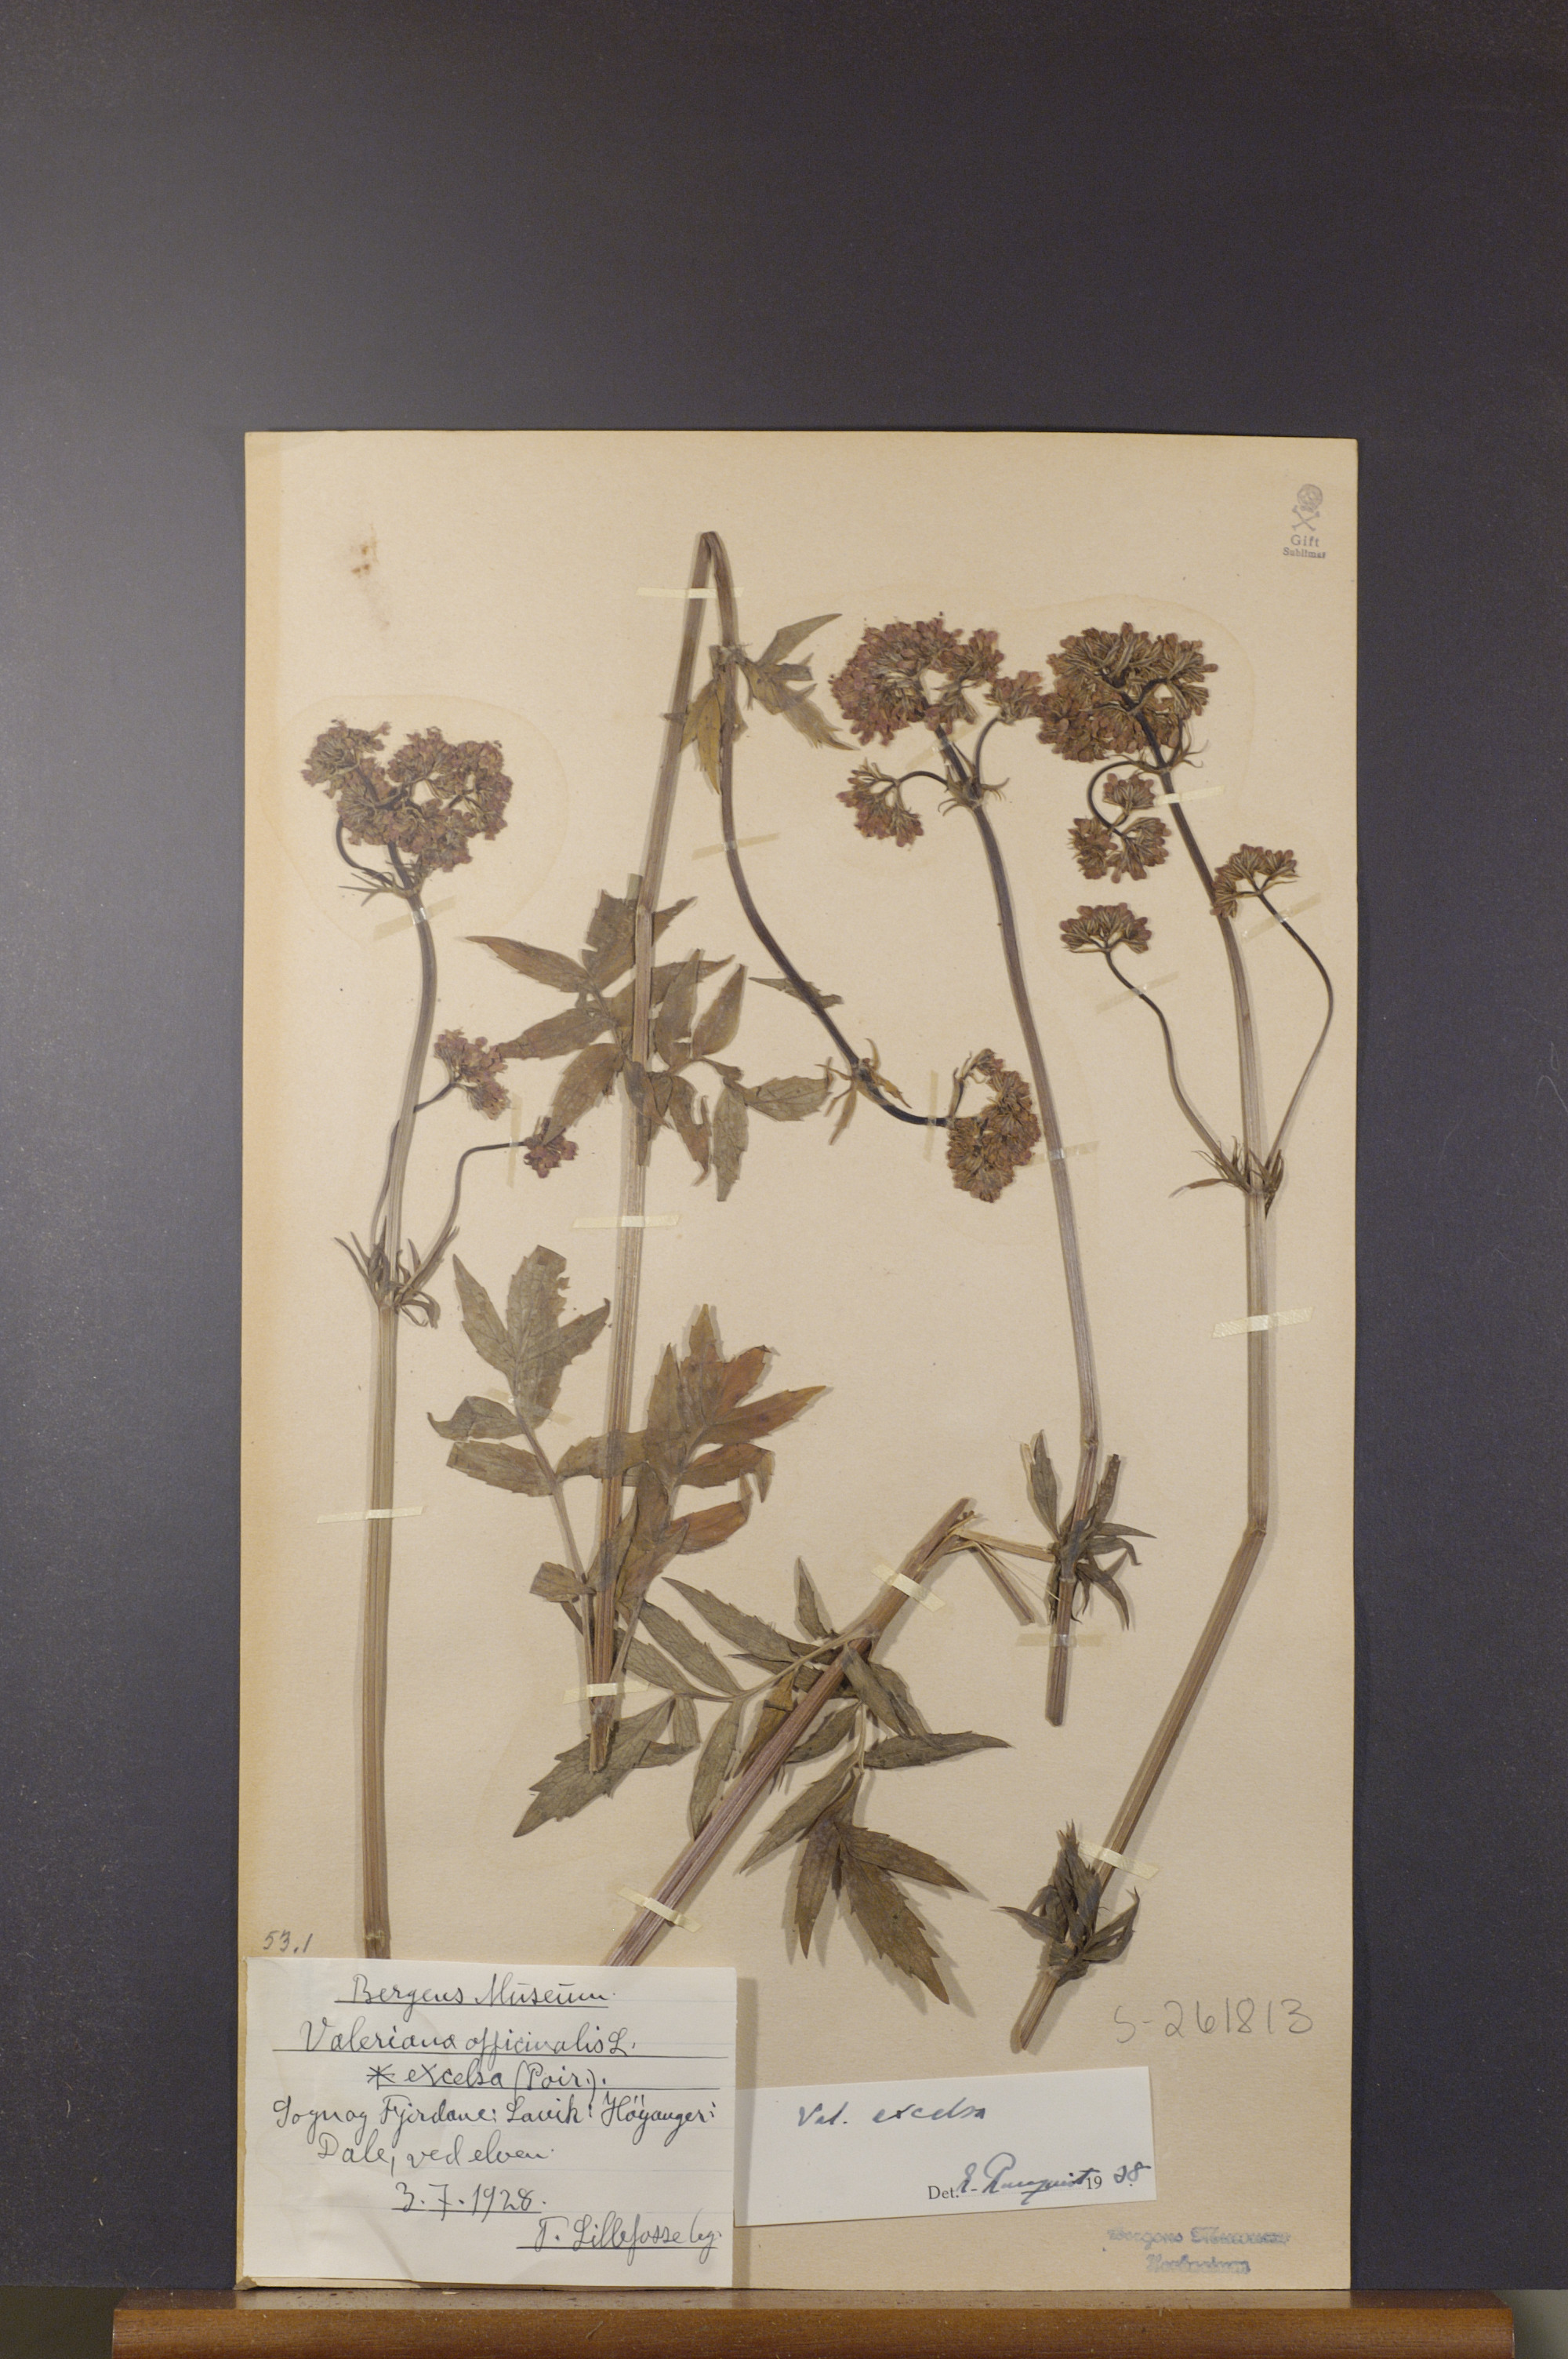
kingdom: Plantae
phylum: Tracheophyta
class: Magnoliopsida
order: Dipsacales
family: Caprifoliaceae
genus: Valeriana
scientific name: Valeriana sambucifolia
